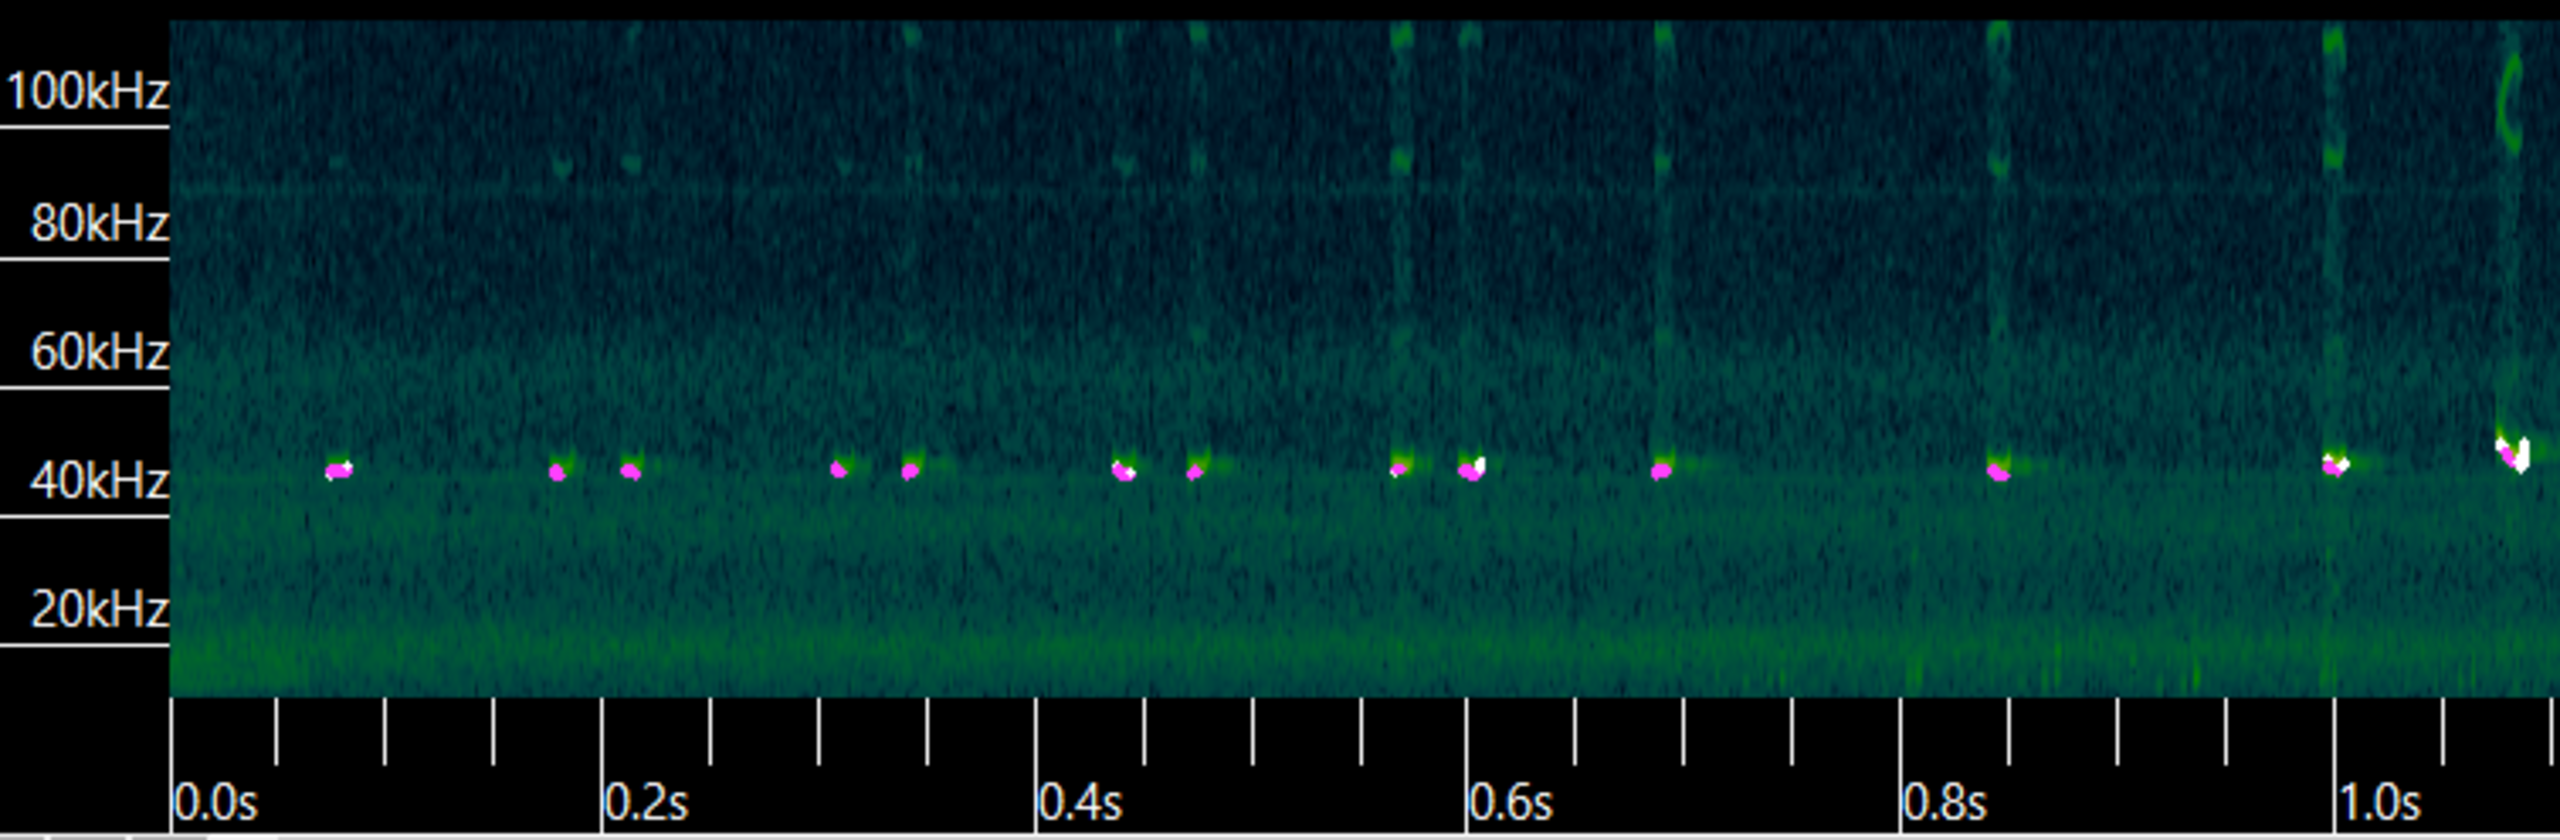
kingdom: Animalia
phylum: Chordata
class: Mammalia
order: Chiroptera
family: Vespertilionidae
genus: Pipistrellus
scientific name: Pipistrellus pipistrellus
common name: Pipistrelflagermus
